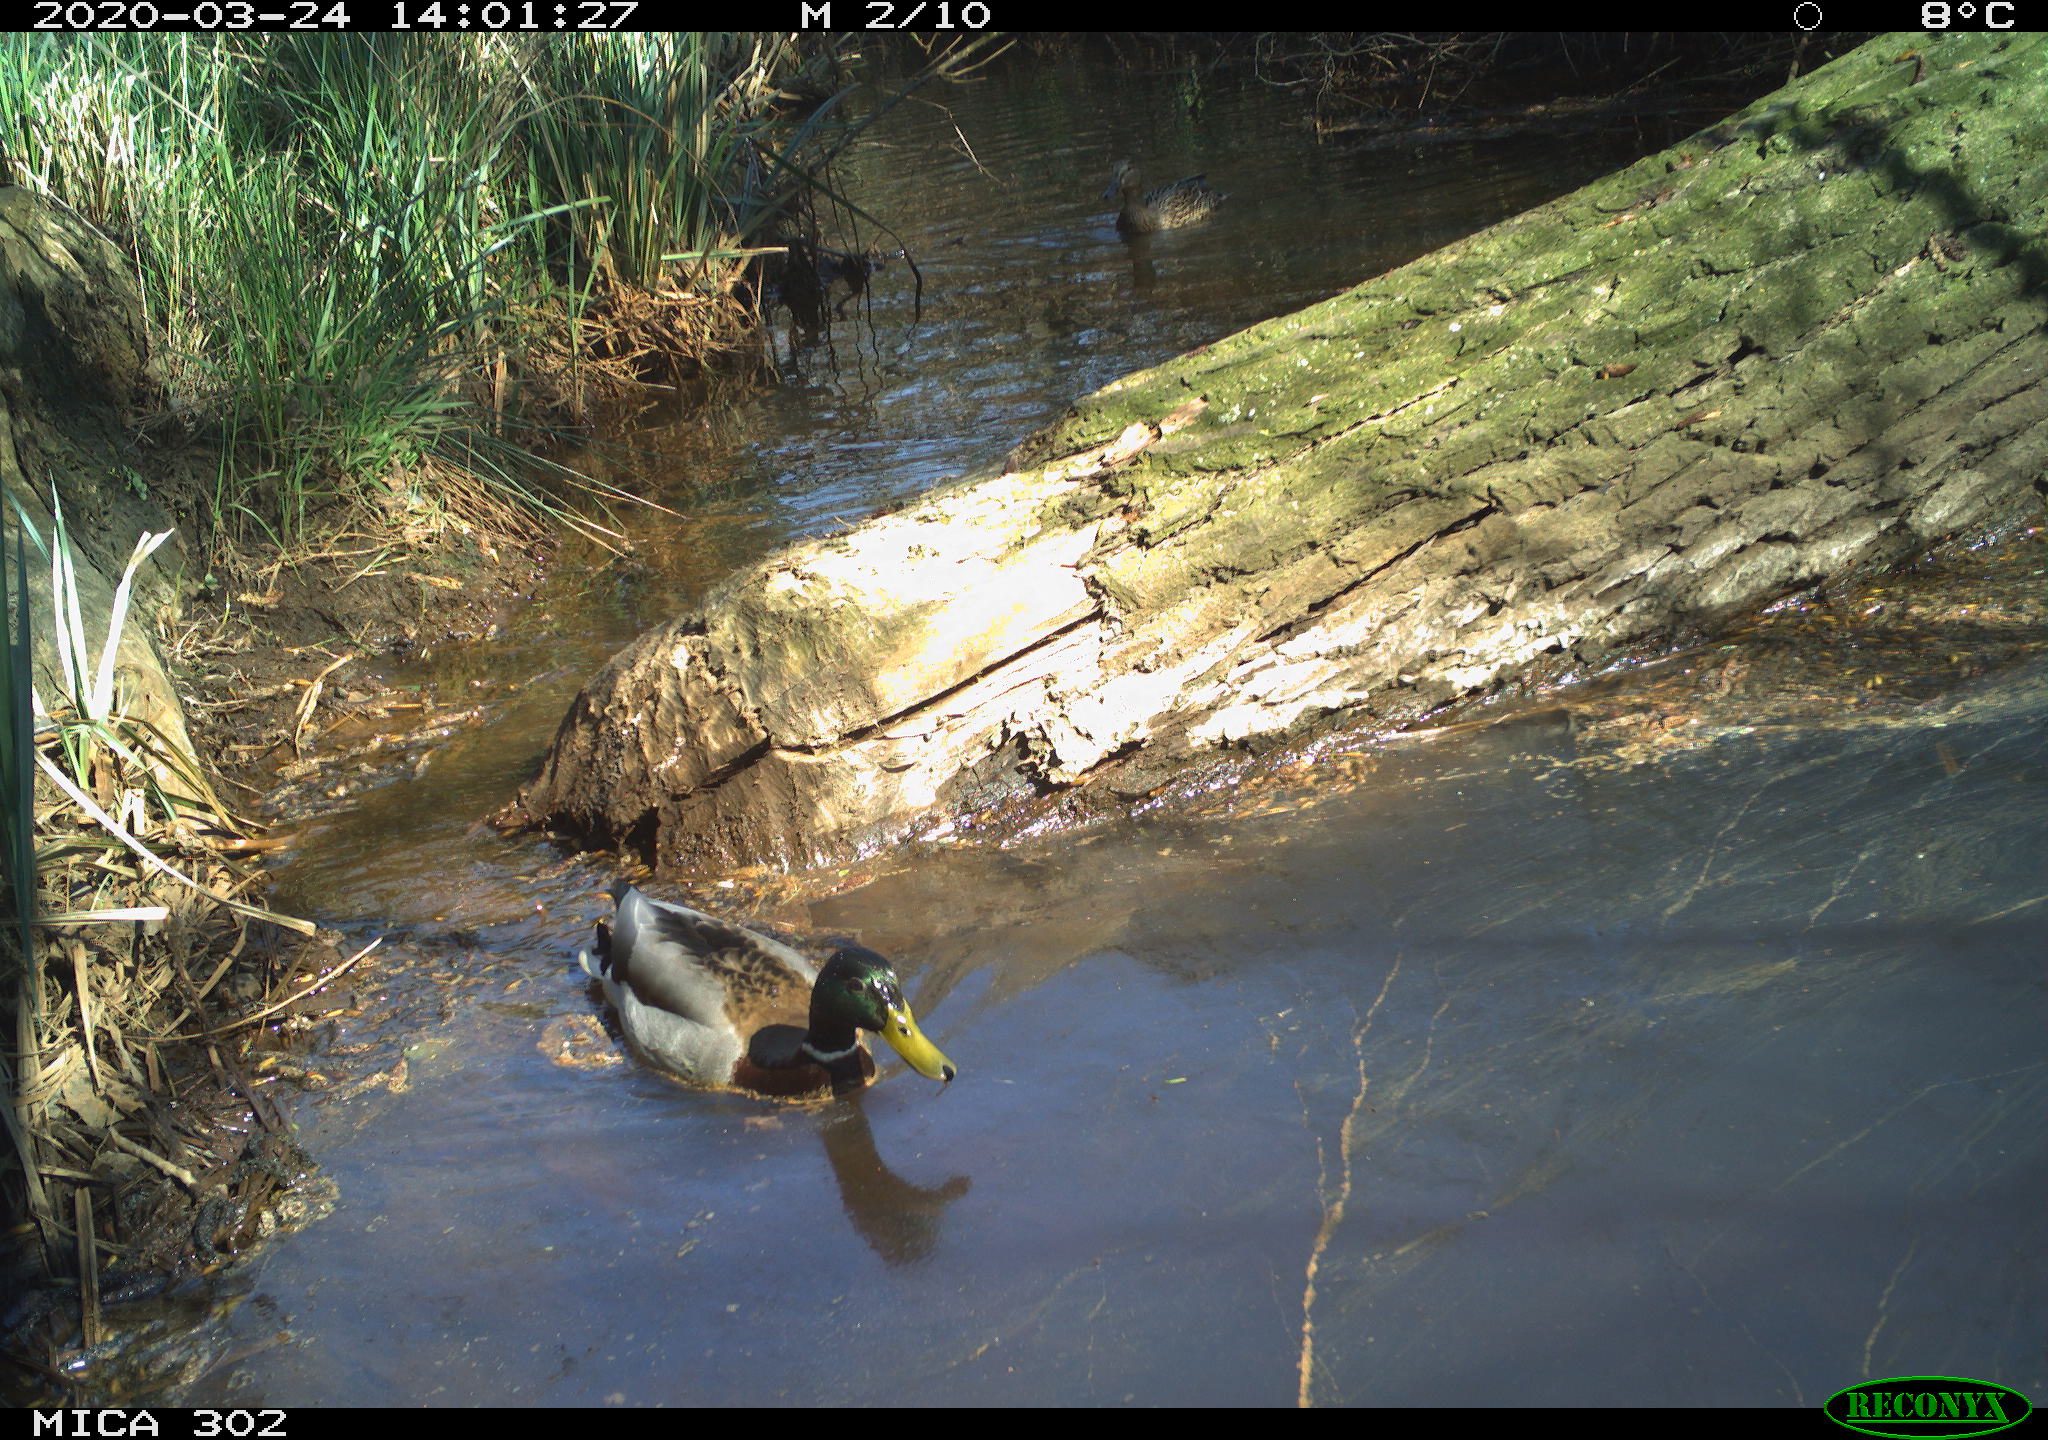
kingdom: Animalia
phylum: Chordata
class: Aves
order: Anseriformes
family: Anatidae
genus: Anas
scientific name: Anas platyrhynchos
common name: Mallard
